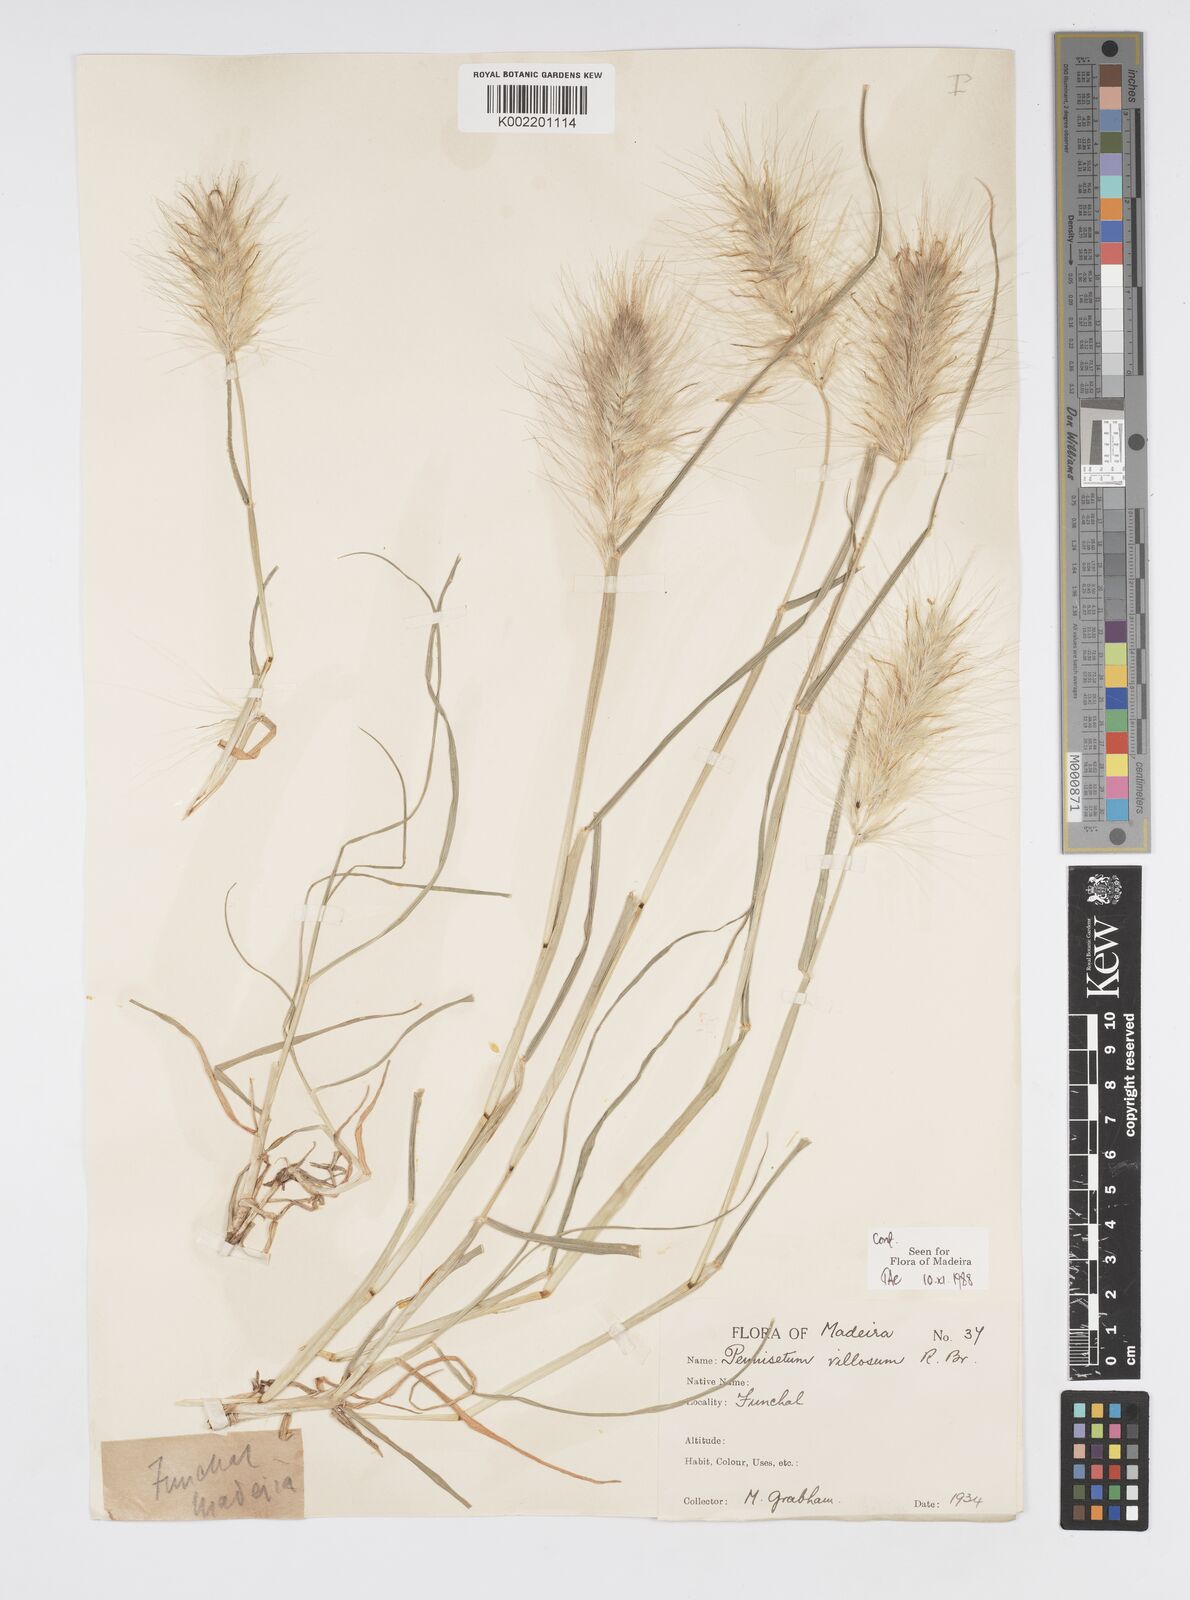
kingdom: Plantae
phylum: Tracheophyta
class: Liliopsida
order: Poales
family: Poaceae
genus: Cenchrus
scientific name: Cenchrus longisetus
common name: Feathertop
